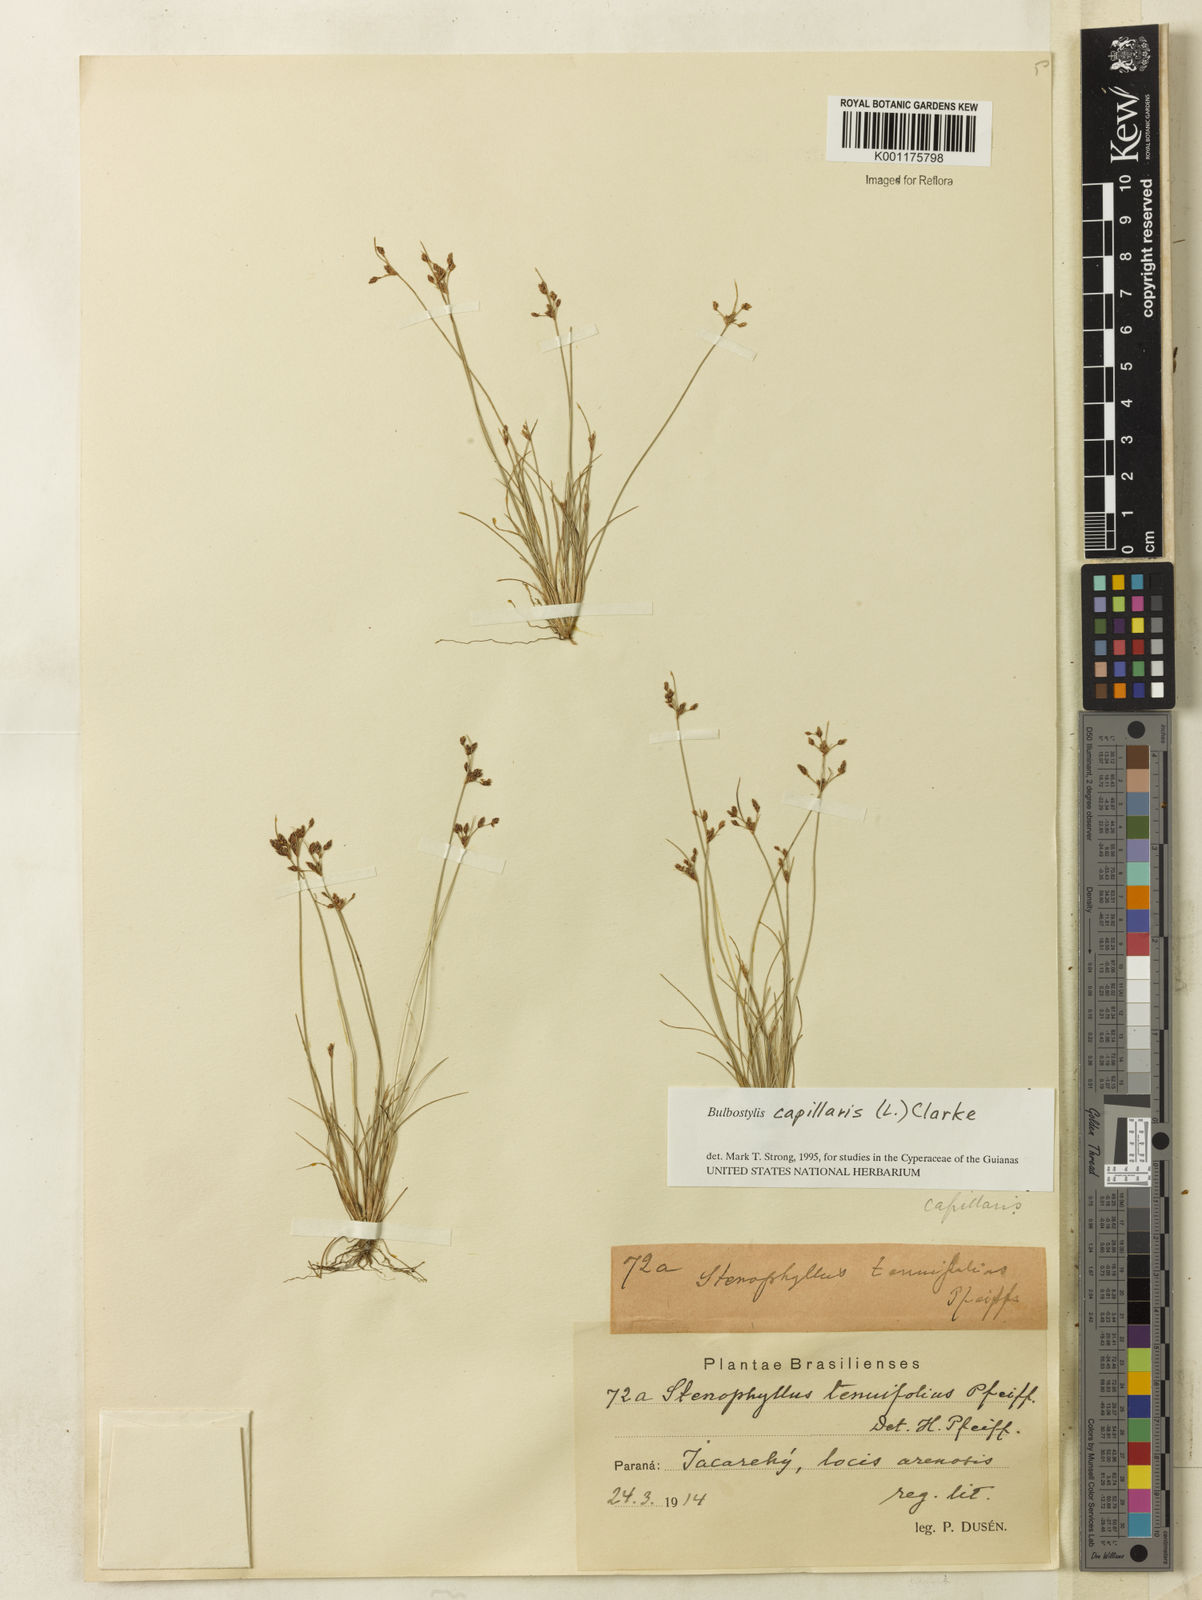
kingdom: Plantae
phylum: Tracheophyta
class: Liliopsida
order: Poales
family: Cyperaceae
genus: Bulbostylis
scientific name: Bulbostylis capillaris
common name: Densetuft hairsedge
